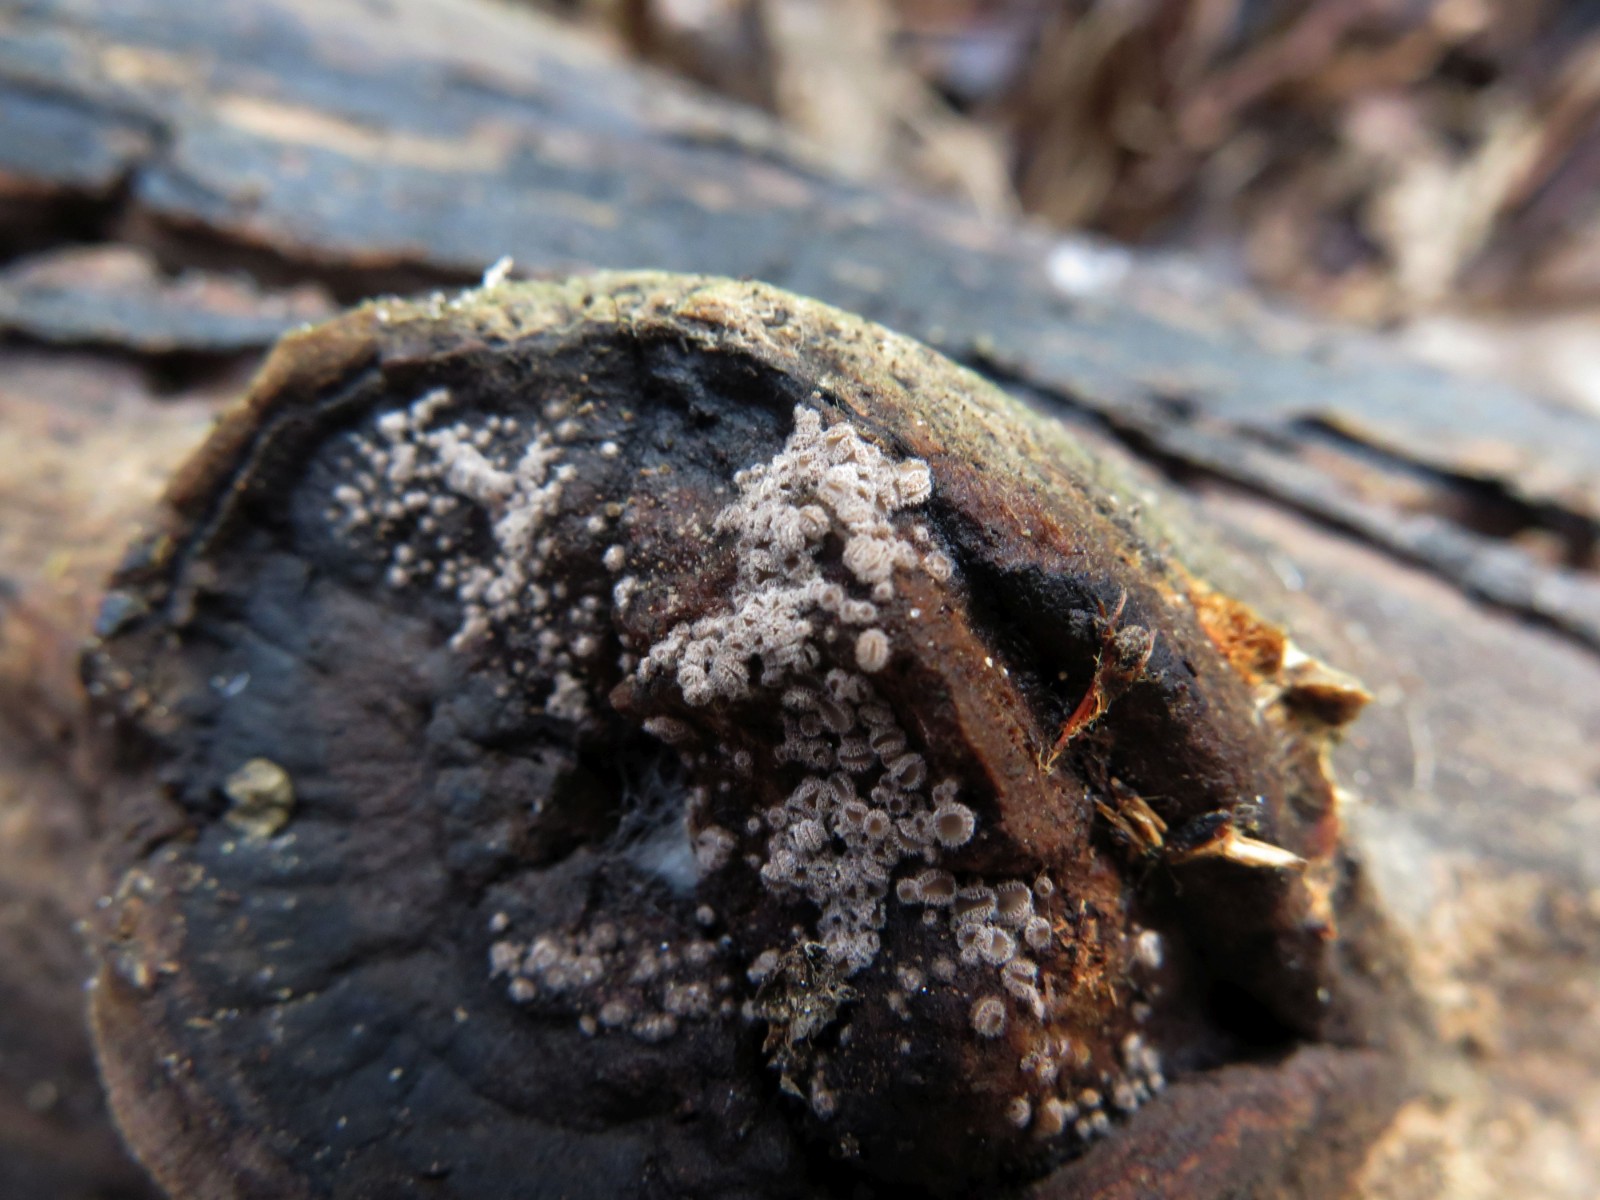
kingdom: Fungi
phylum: Ascomycota
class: Leotiomycetes
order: Helotiales
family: Solenopeziaceae
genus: Lasiobelonium
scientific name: Lasiobelonium variegatum
